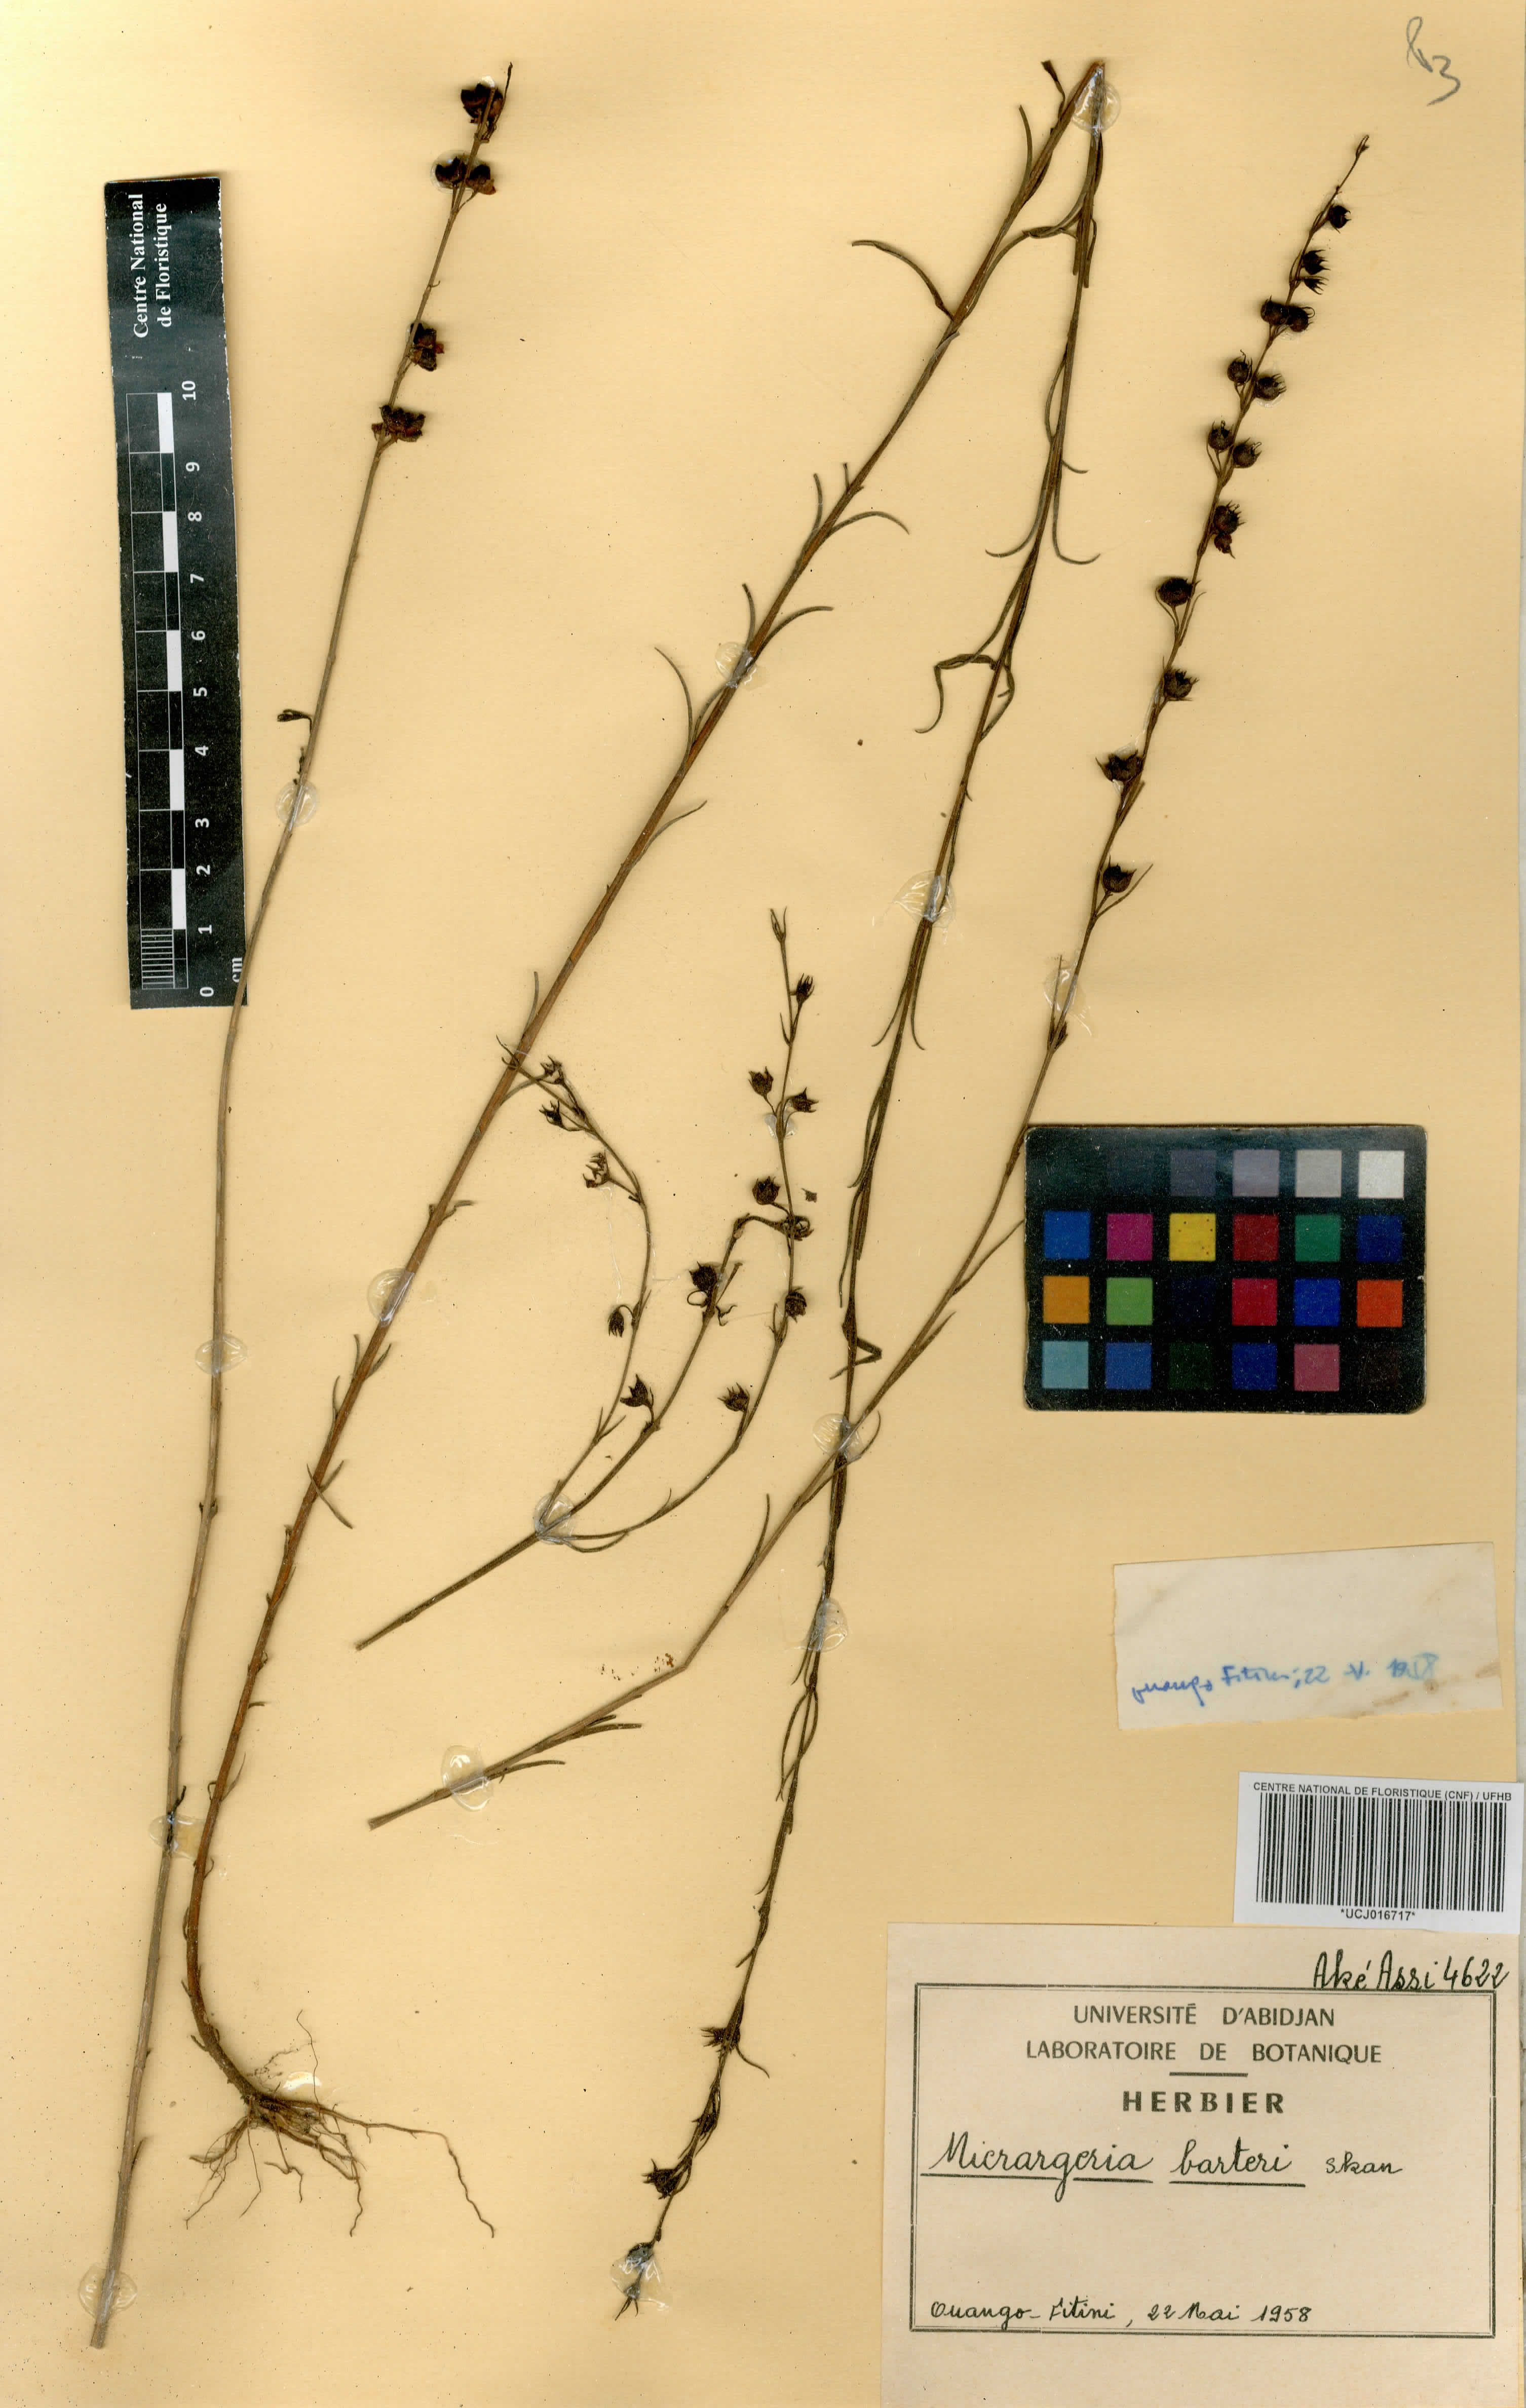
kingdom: Plantae
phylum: Tracheophyta
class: Magnoliopsida
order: Lamiales
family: Orobanchaceae
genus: Micrargeria
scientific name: Micrargeria filiformis
